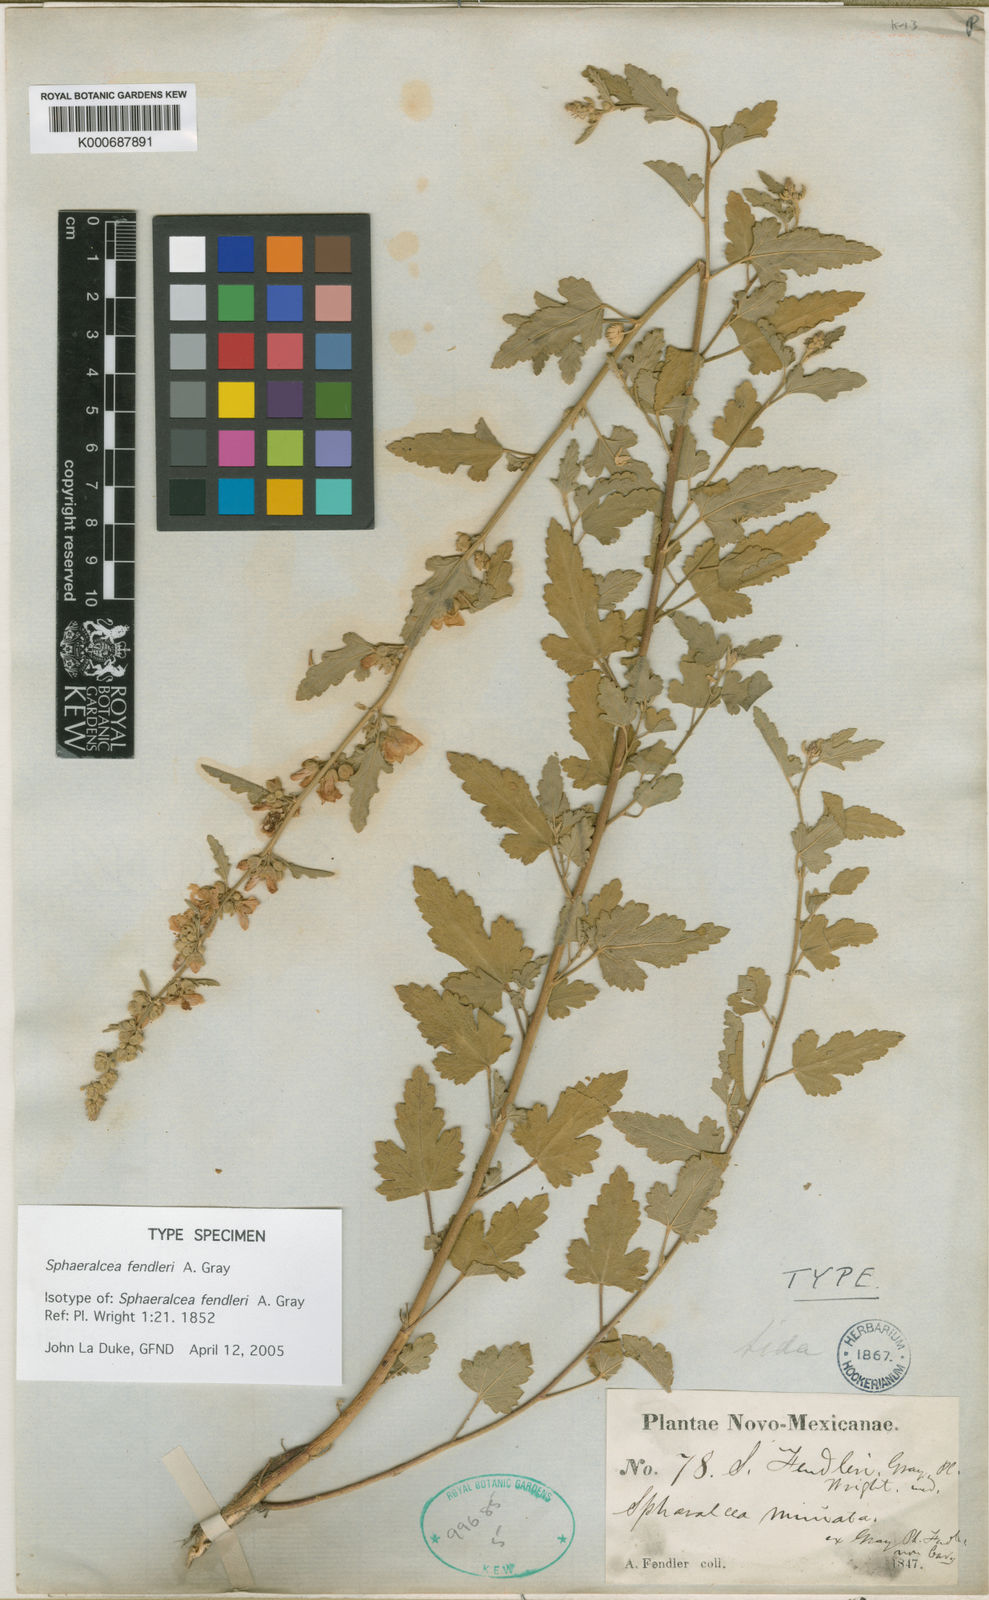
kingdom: Plantae
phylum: Tracheophyta
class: Magnoliopsida
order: Malvales
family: Malvaceae
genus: Sphaeralcea
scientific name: Sphaeralcea fendleri
